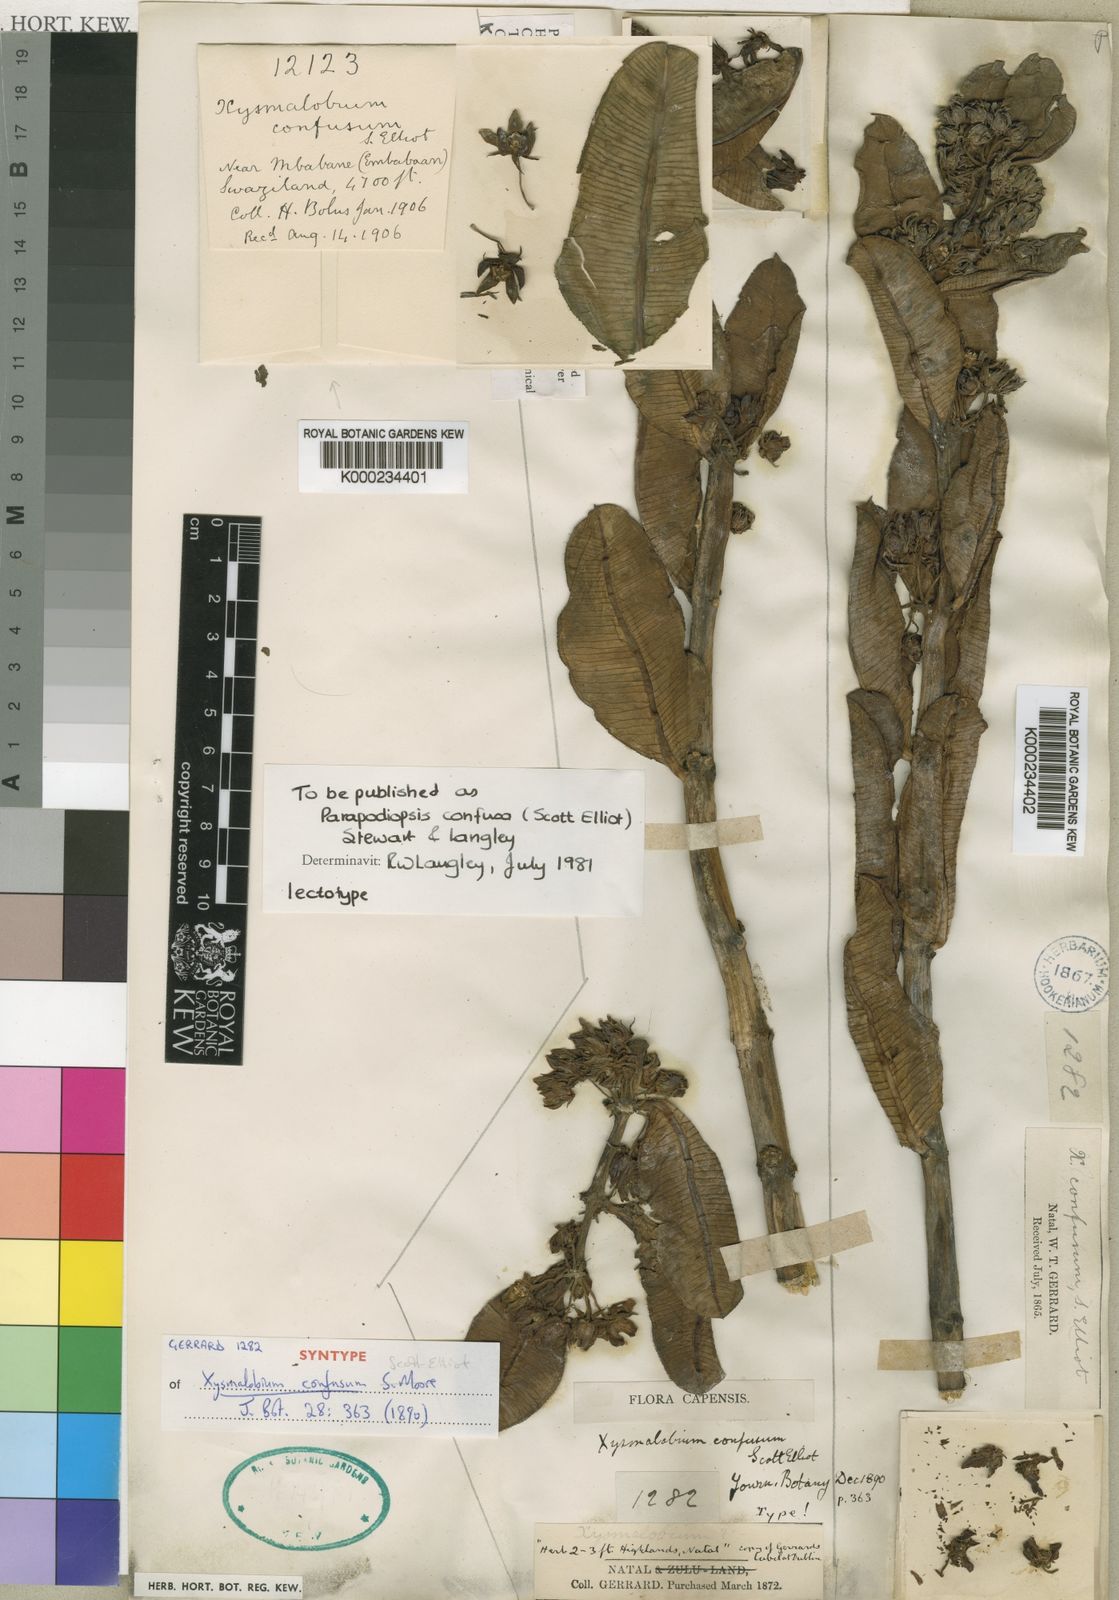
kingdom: Plantae
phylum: Tracheophyta
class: Magnoliopsida
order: Gentianales
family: Asclepiadaceae
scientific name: Asclepiadaceae
